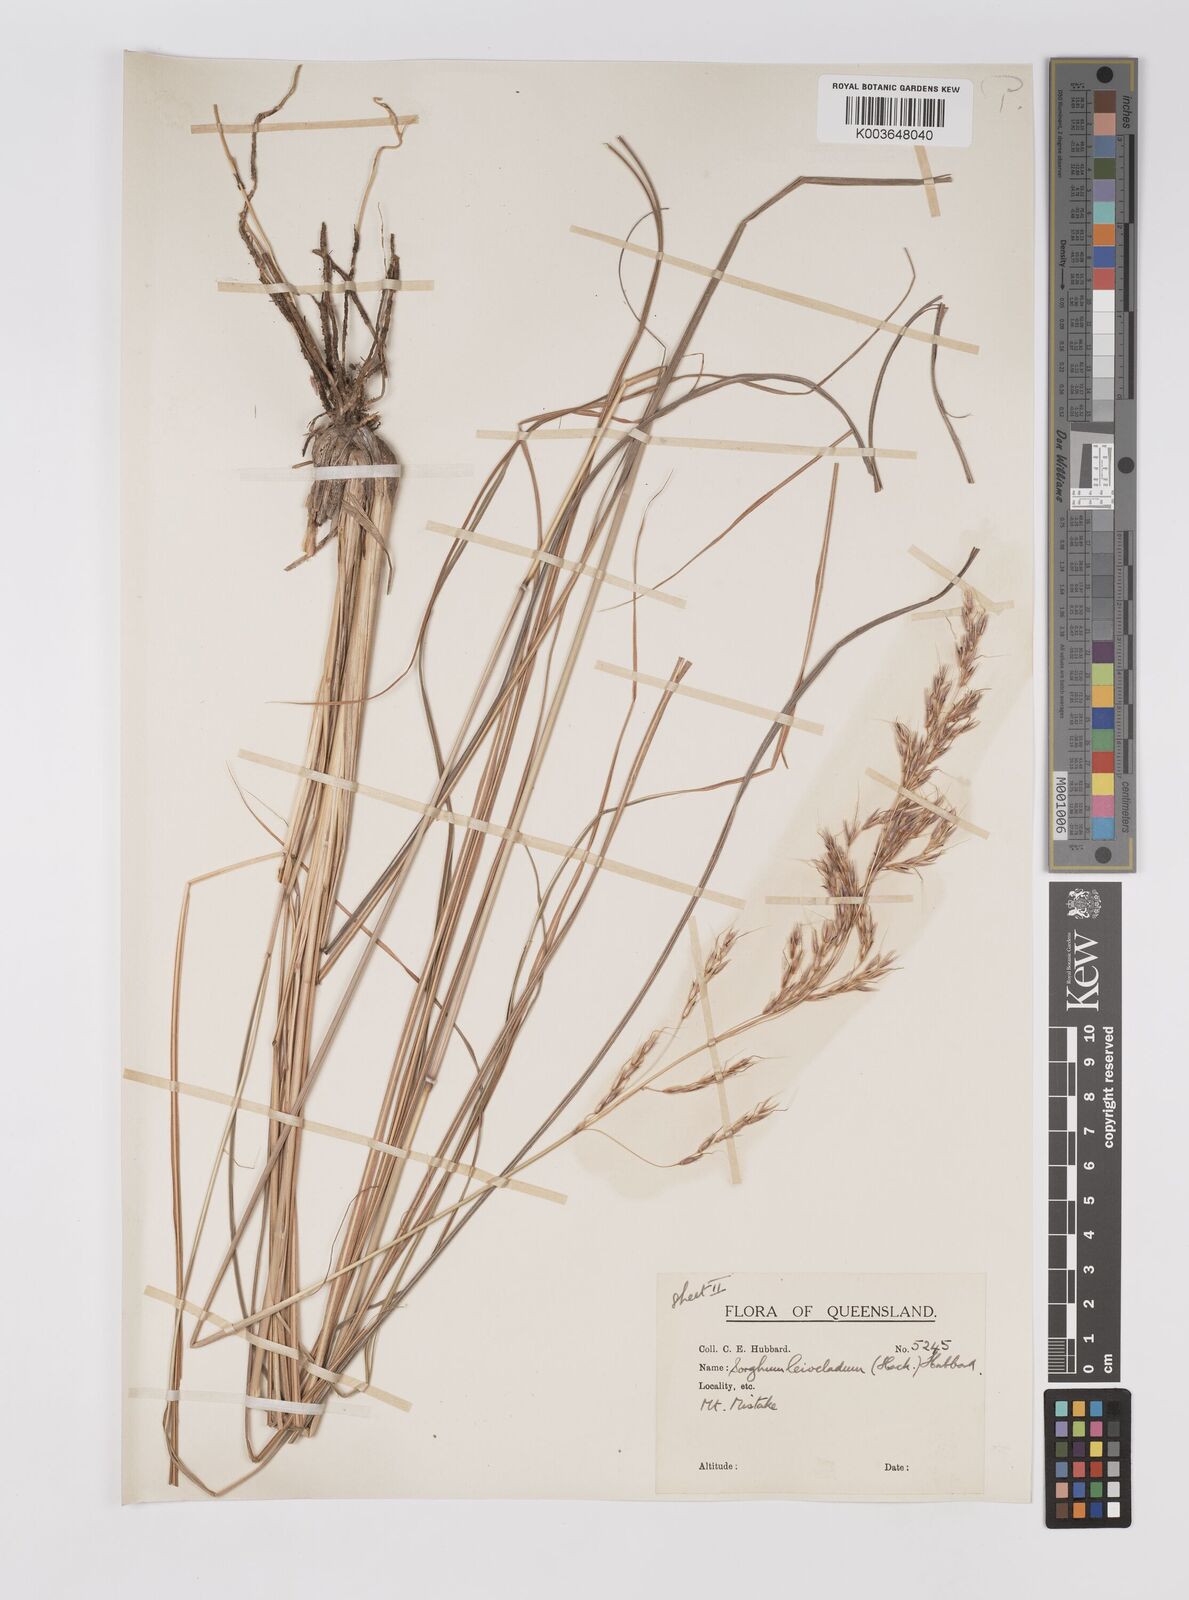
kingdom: Plantae
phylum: Tracheophyta
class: Liliopsida
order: Poales
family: Poaceae
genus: Sarga
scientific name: Sarga leioclada
